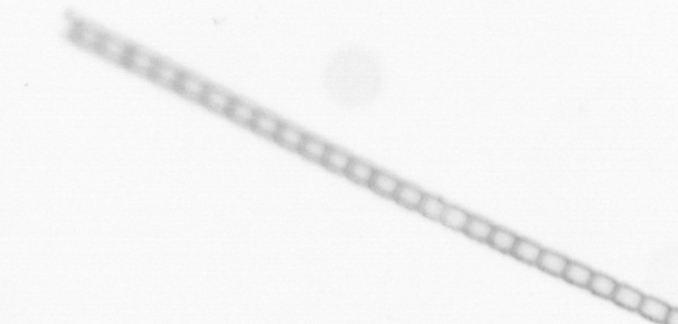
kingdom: Chromista
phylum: Ochrophyta
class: Bacillariophyceae
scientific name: Bacillariophyceae
